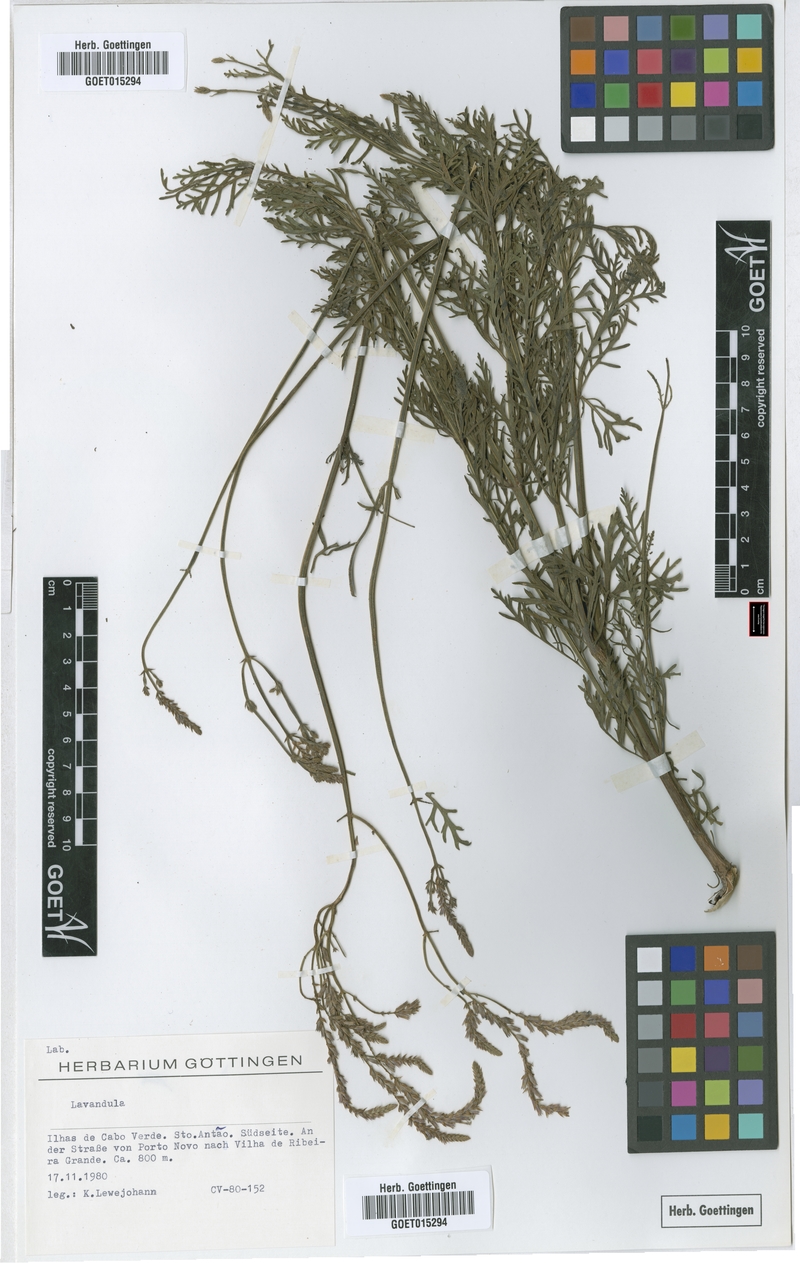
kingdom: Plantae
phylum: Tracheophyta
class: Magnoliopsida
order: Lamiales
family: Lamiaceae
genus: Lavandula
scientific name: Lavandula
